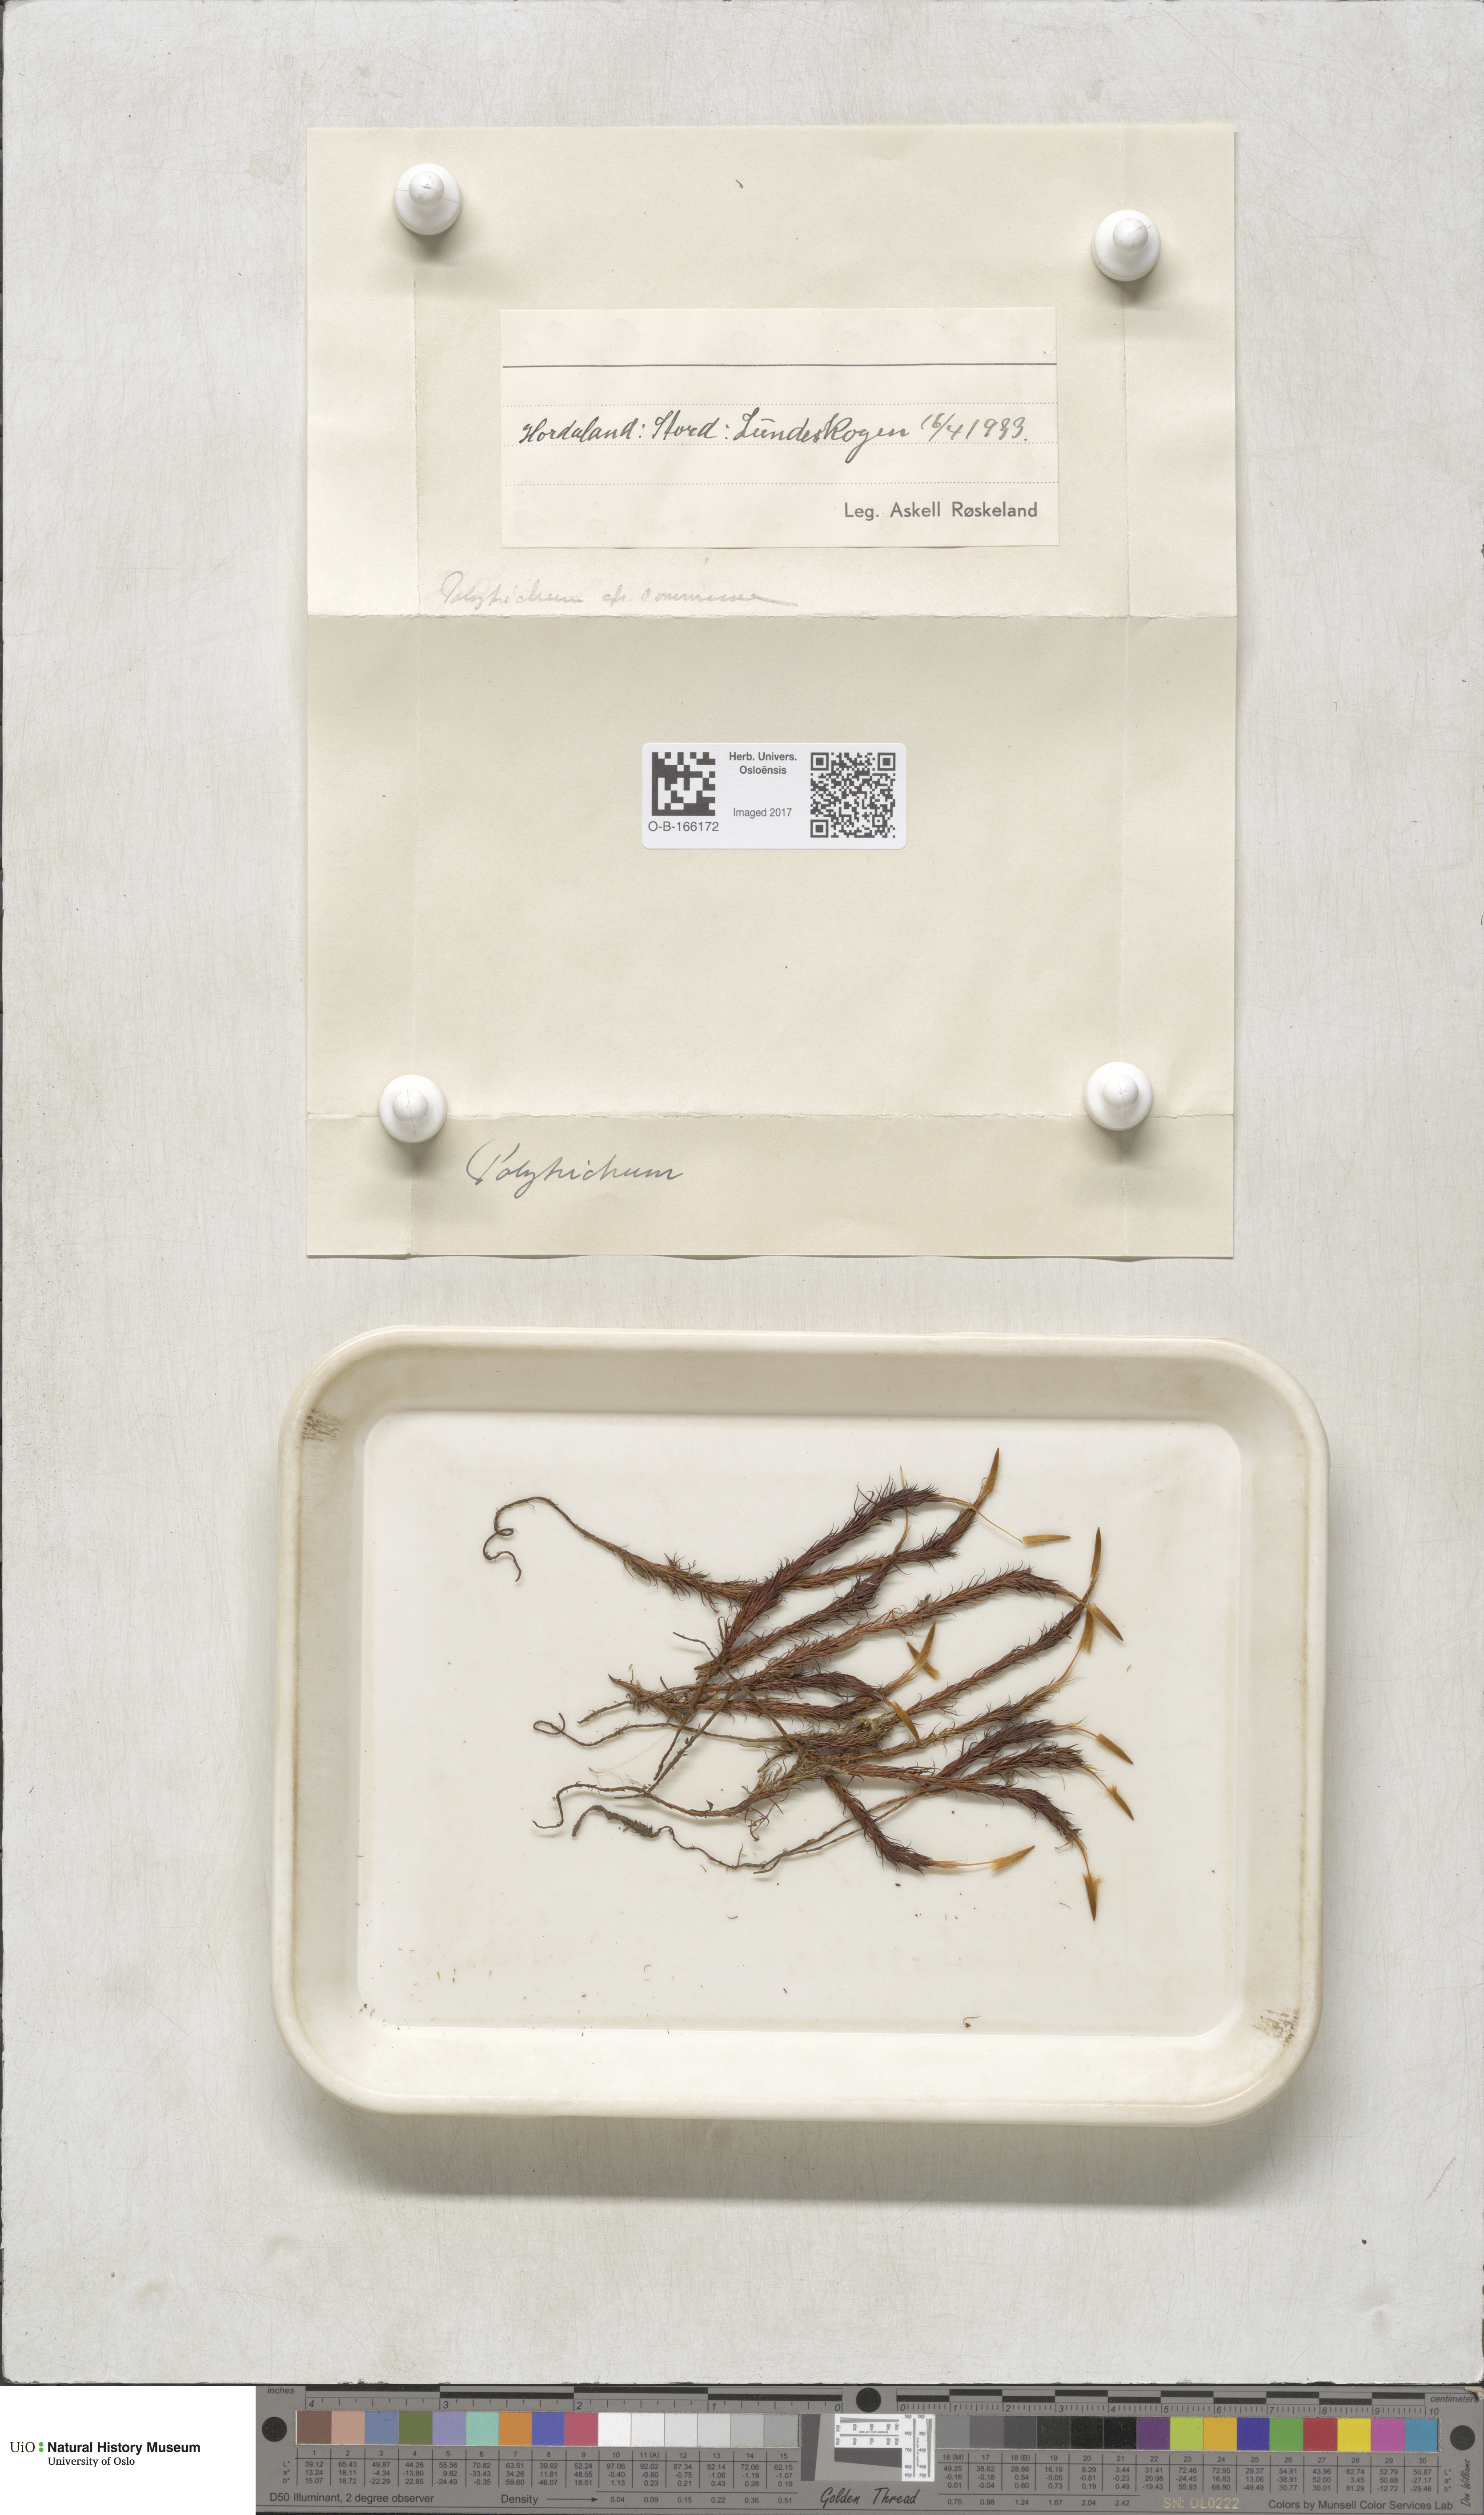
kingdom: Plantae
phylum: Bryophyta
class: Polytrichopsida
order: Polytrichales
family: Polytrichaceae
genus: Polytrichum
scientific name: Polytrichum
